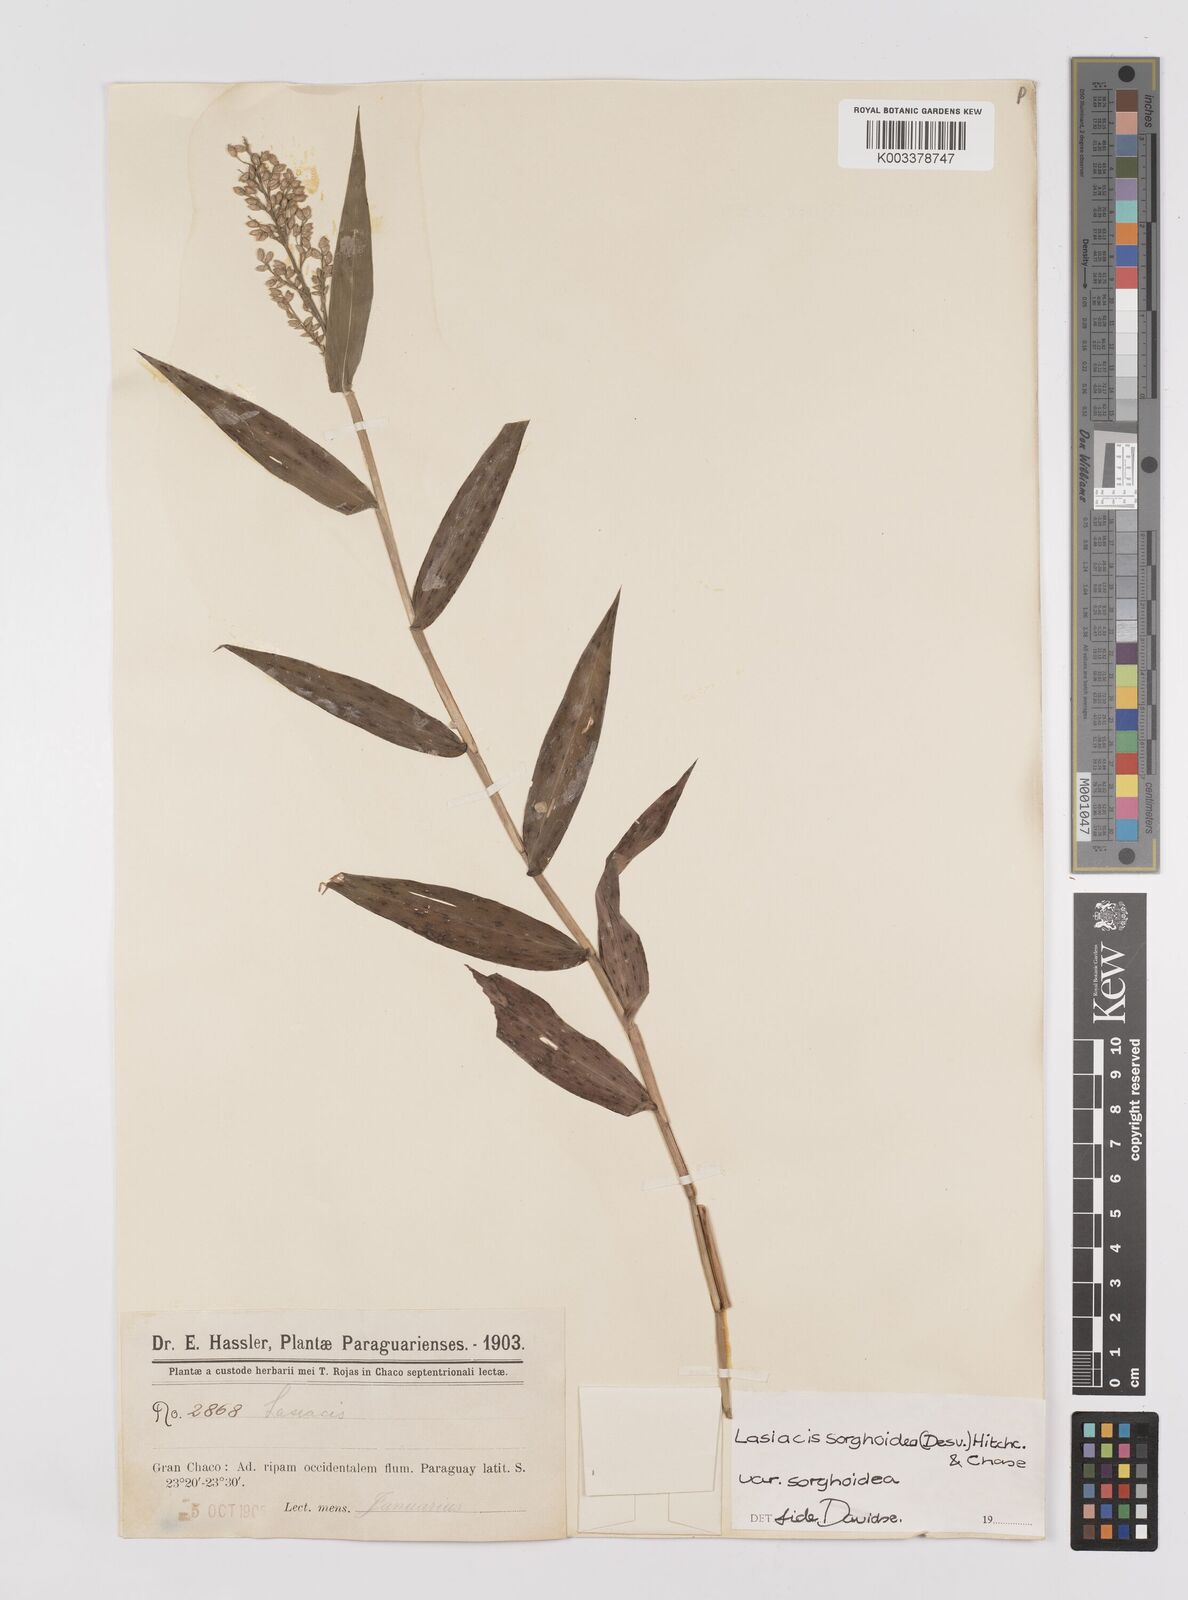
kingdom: Plantae
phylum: Tracheophyta
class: Liliopsida
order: Poales
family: Poaceae
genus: Lasiacis
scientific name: Lasiacis maculata
